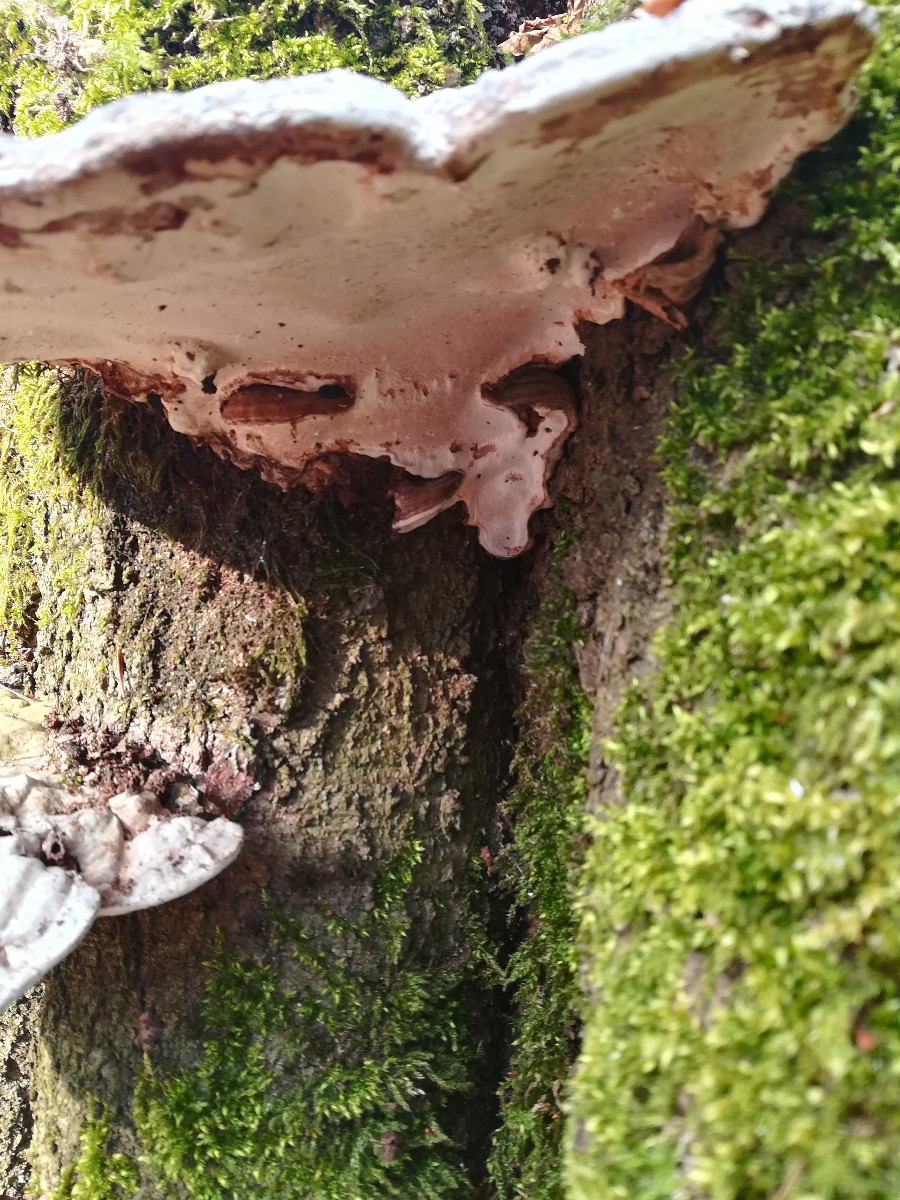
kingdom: Fungi
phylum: Basidiomycota
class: Agaricomycetes
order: Polyporales
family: Polyporaceae
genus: Ganoderma
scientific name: Ganoderma applanatum
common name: flad lakporesvamp
